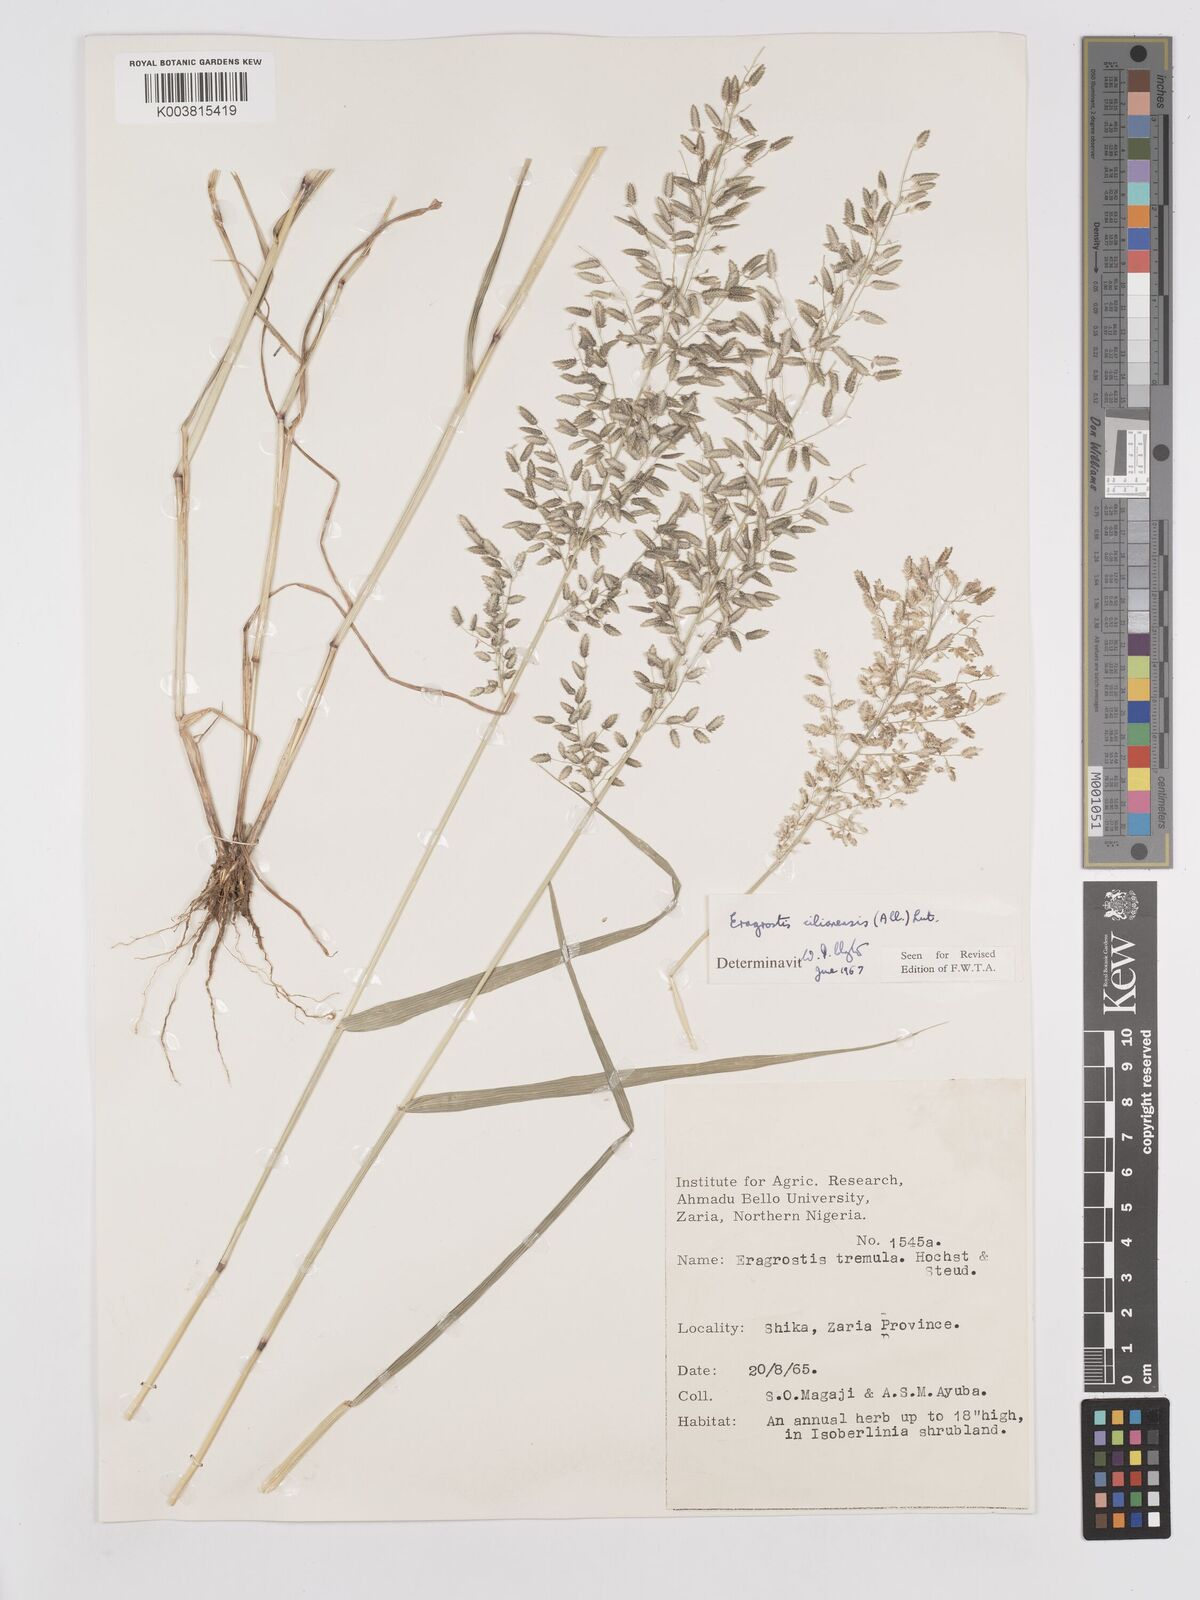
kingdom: Plantae
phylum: Tracheophyta
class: Liliopsida
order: Poales
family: Poaceae
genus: Eragrostis
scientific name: Eragrostis cilianensis
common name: Stinkgrass
